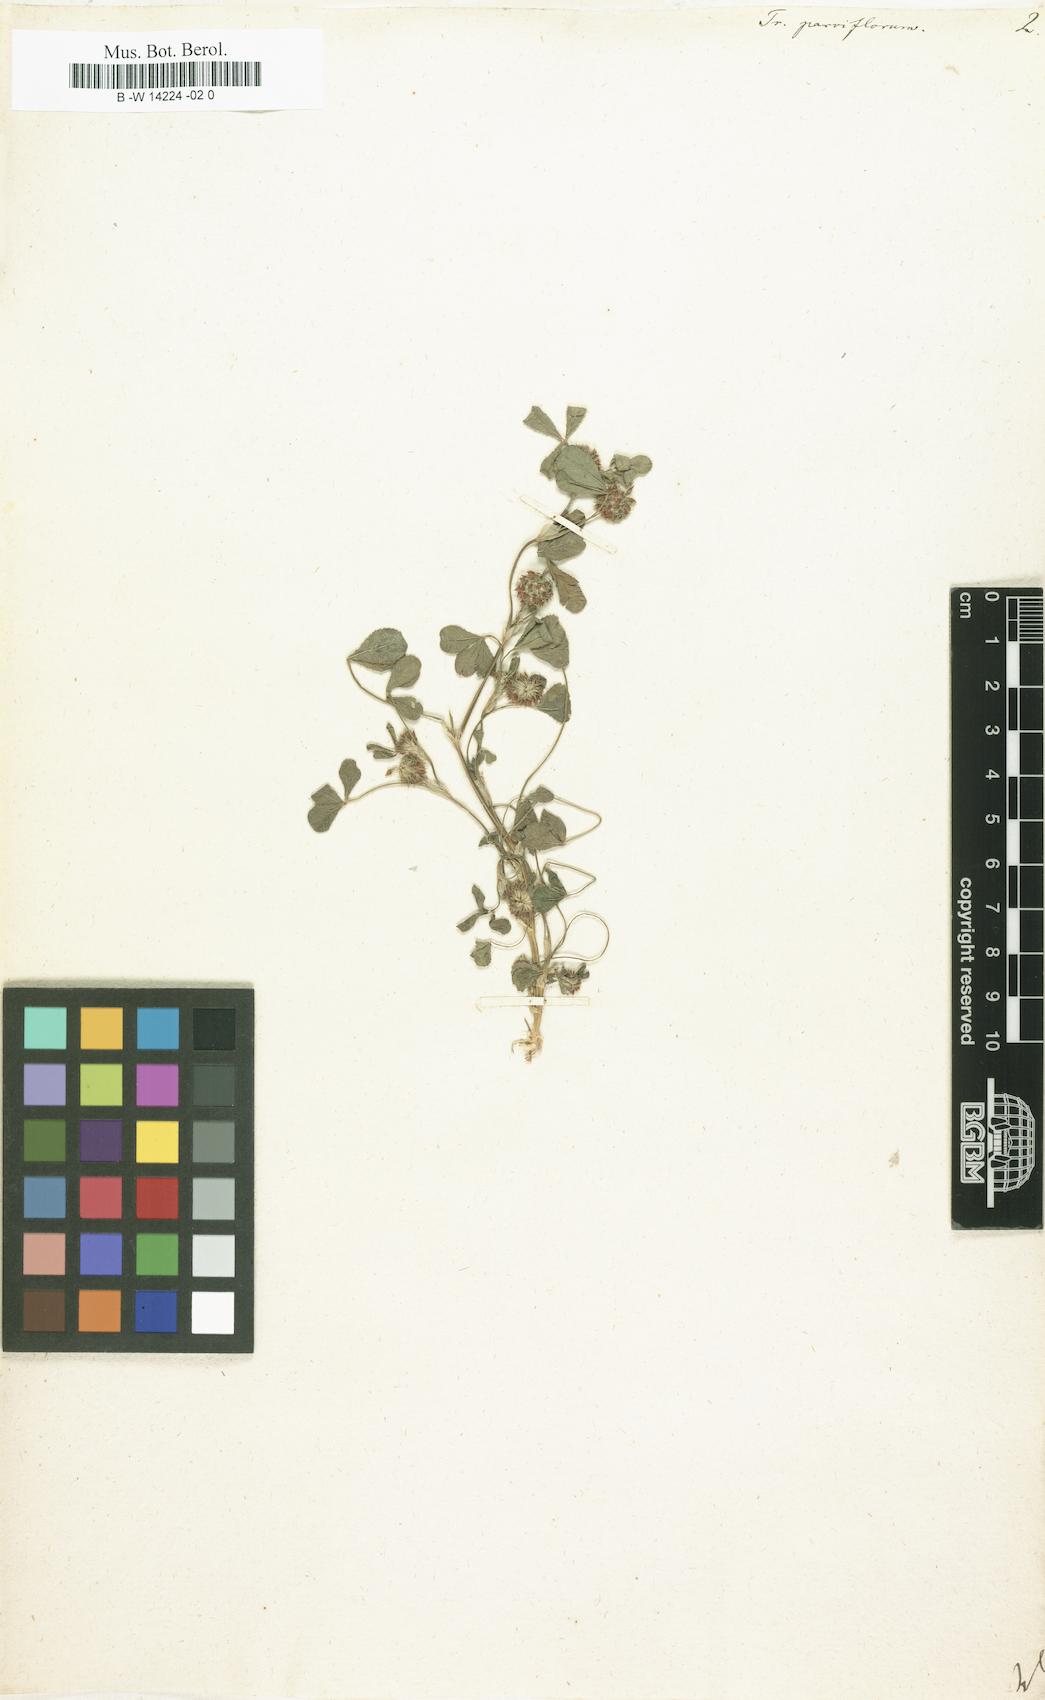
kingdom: Plantae
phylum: Tracheophyta
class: Magnoliopsida
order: Fabales
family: Fabaceae
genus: Trifolium
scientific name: Trifolium retusum
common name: Teasel clover
